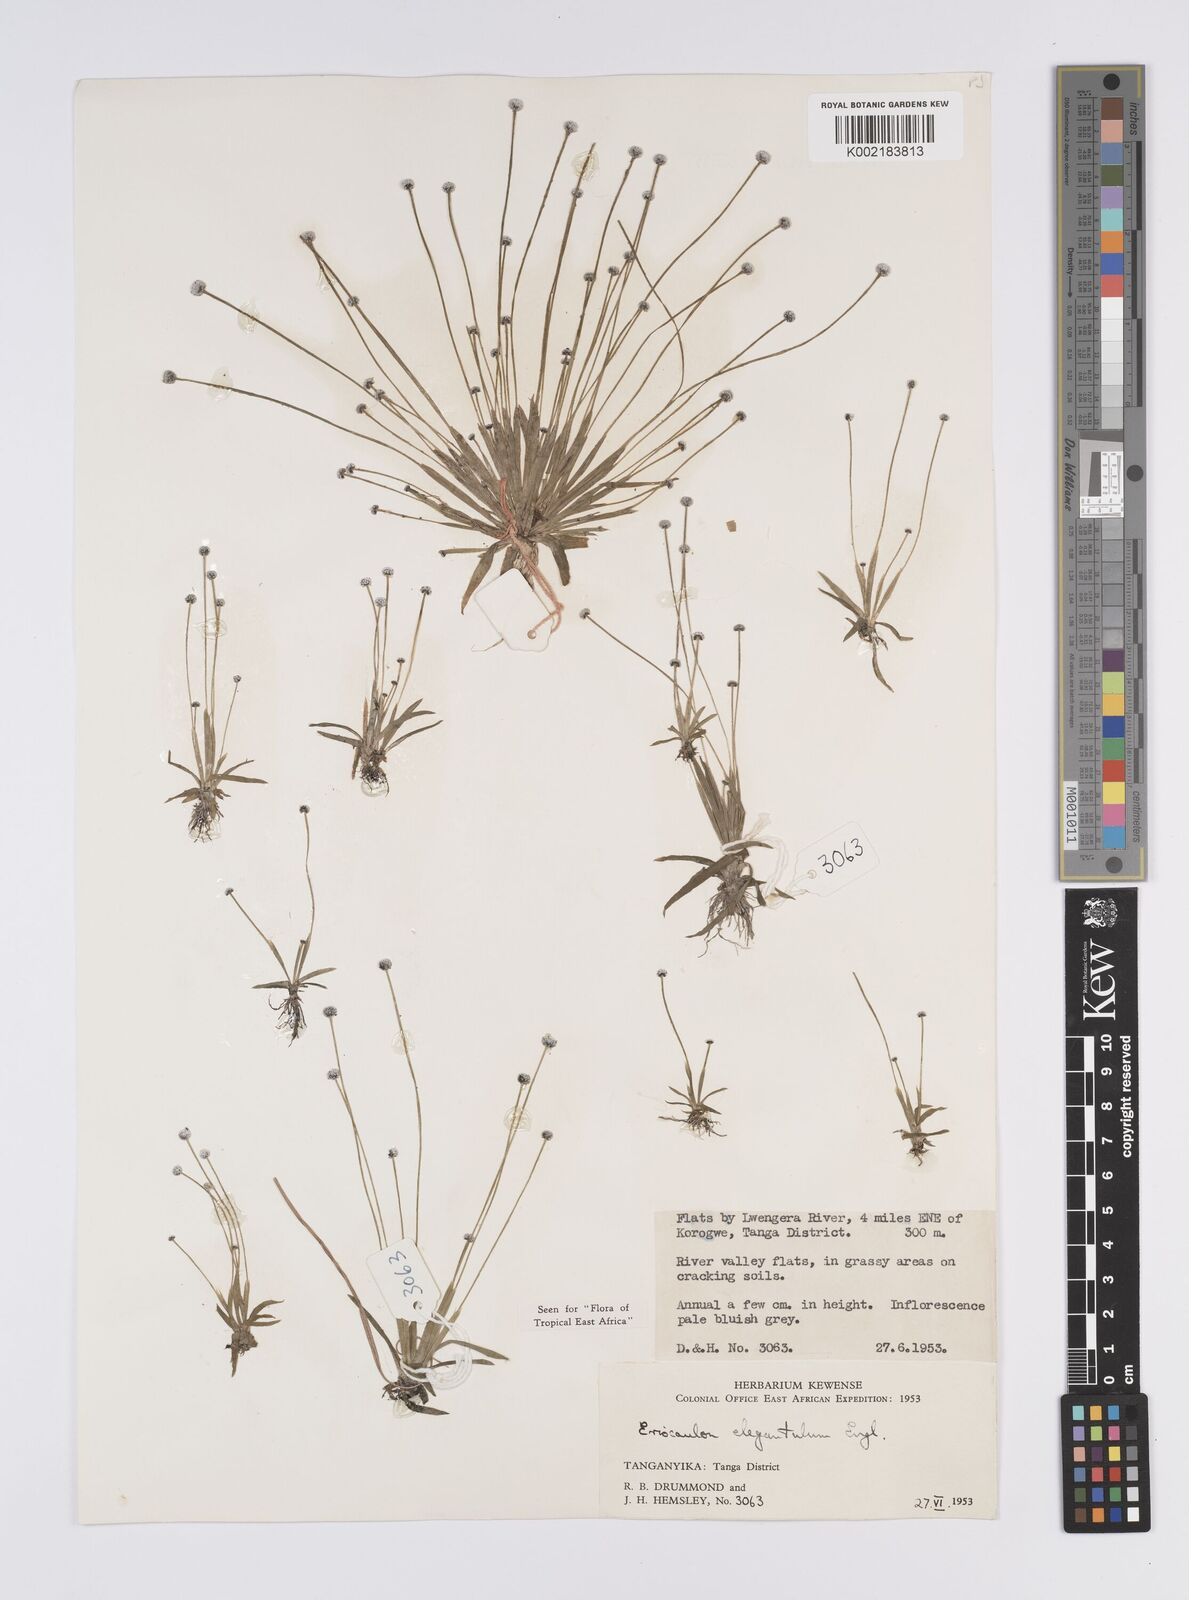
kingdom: Plantae
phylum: Tracheophyta
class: Liliopsida
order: Poales
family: Eriocaulaceae
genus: Eriocaulon
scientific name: Eriocaulon elegantulum
